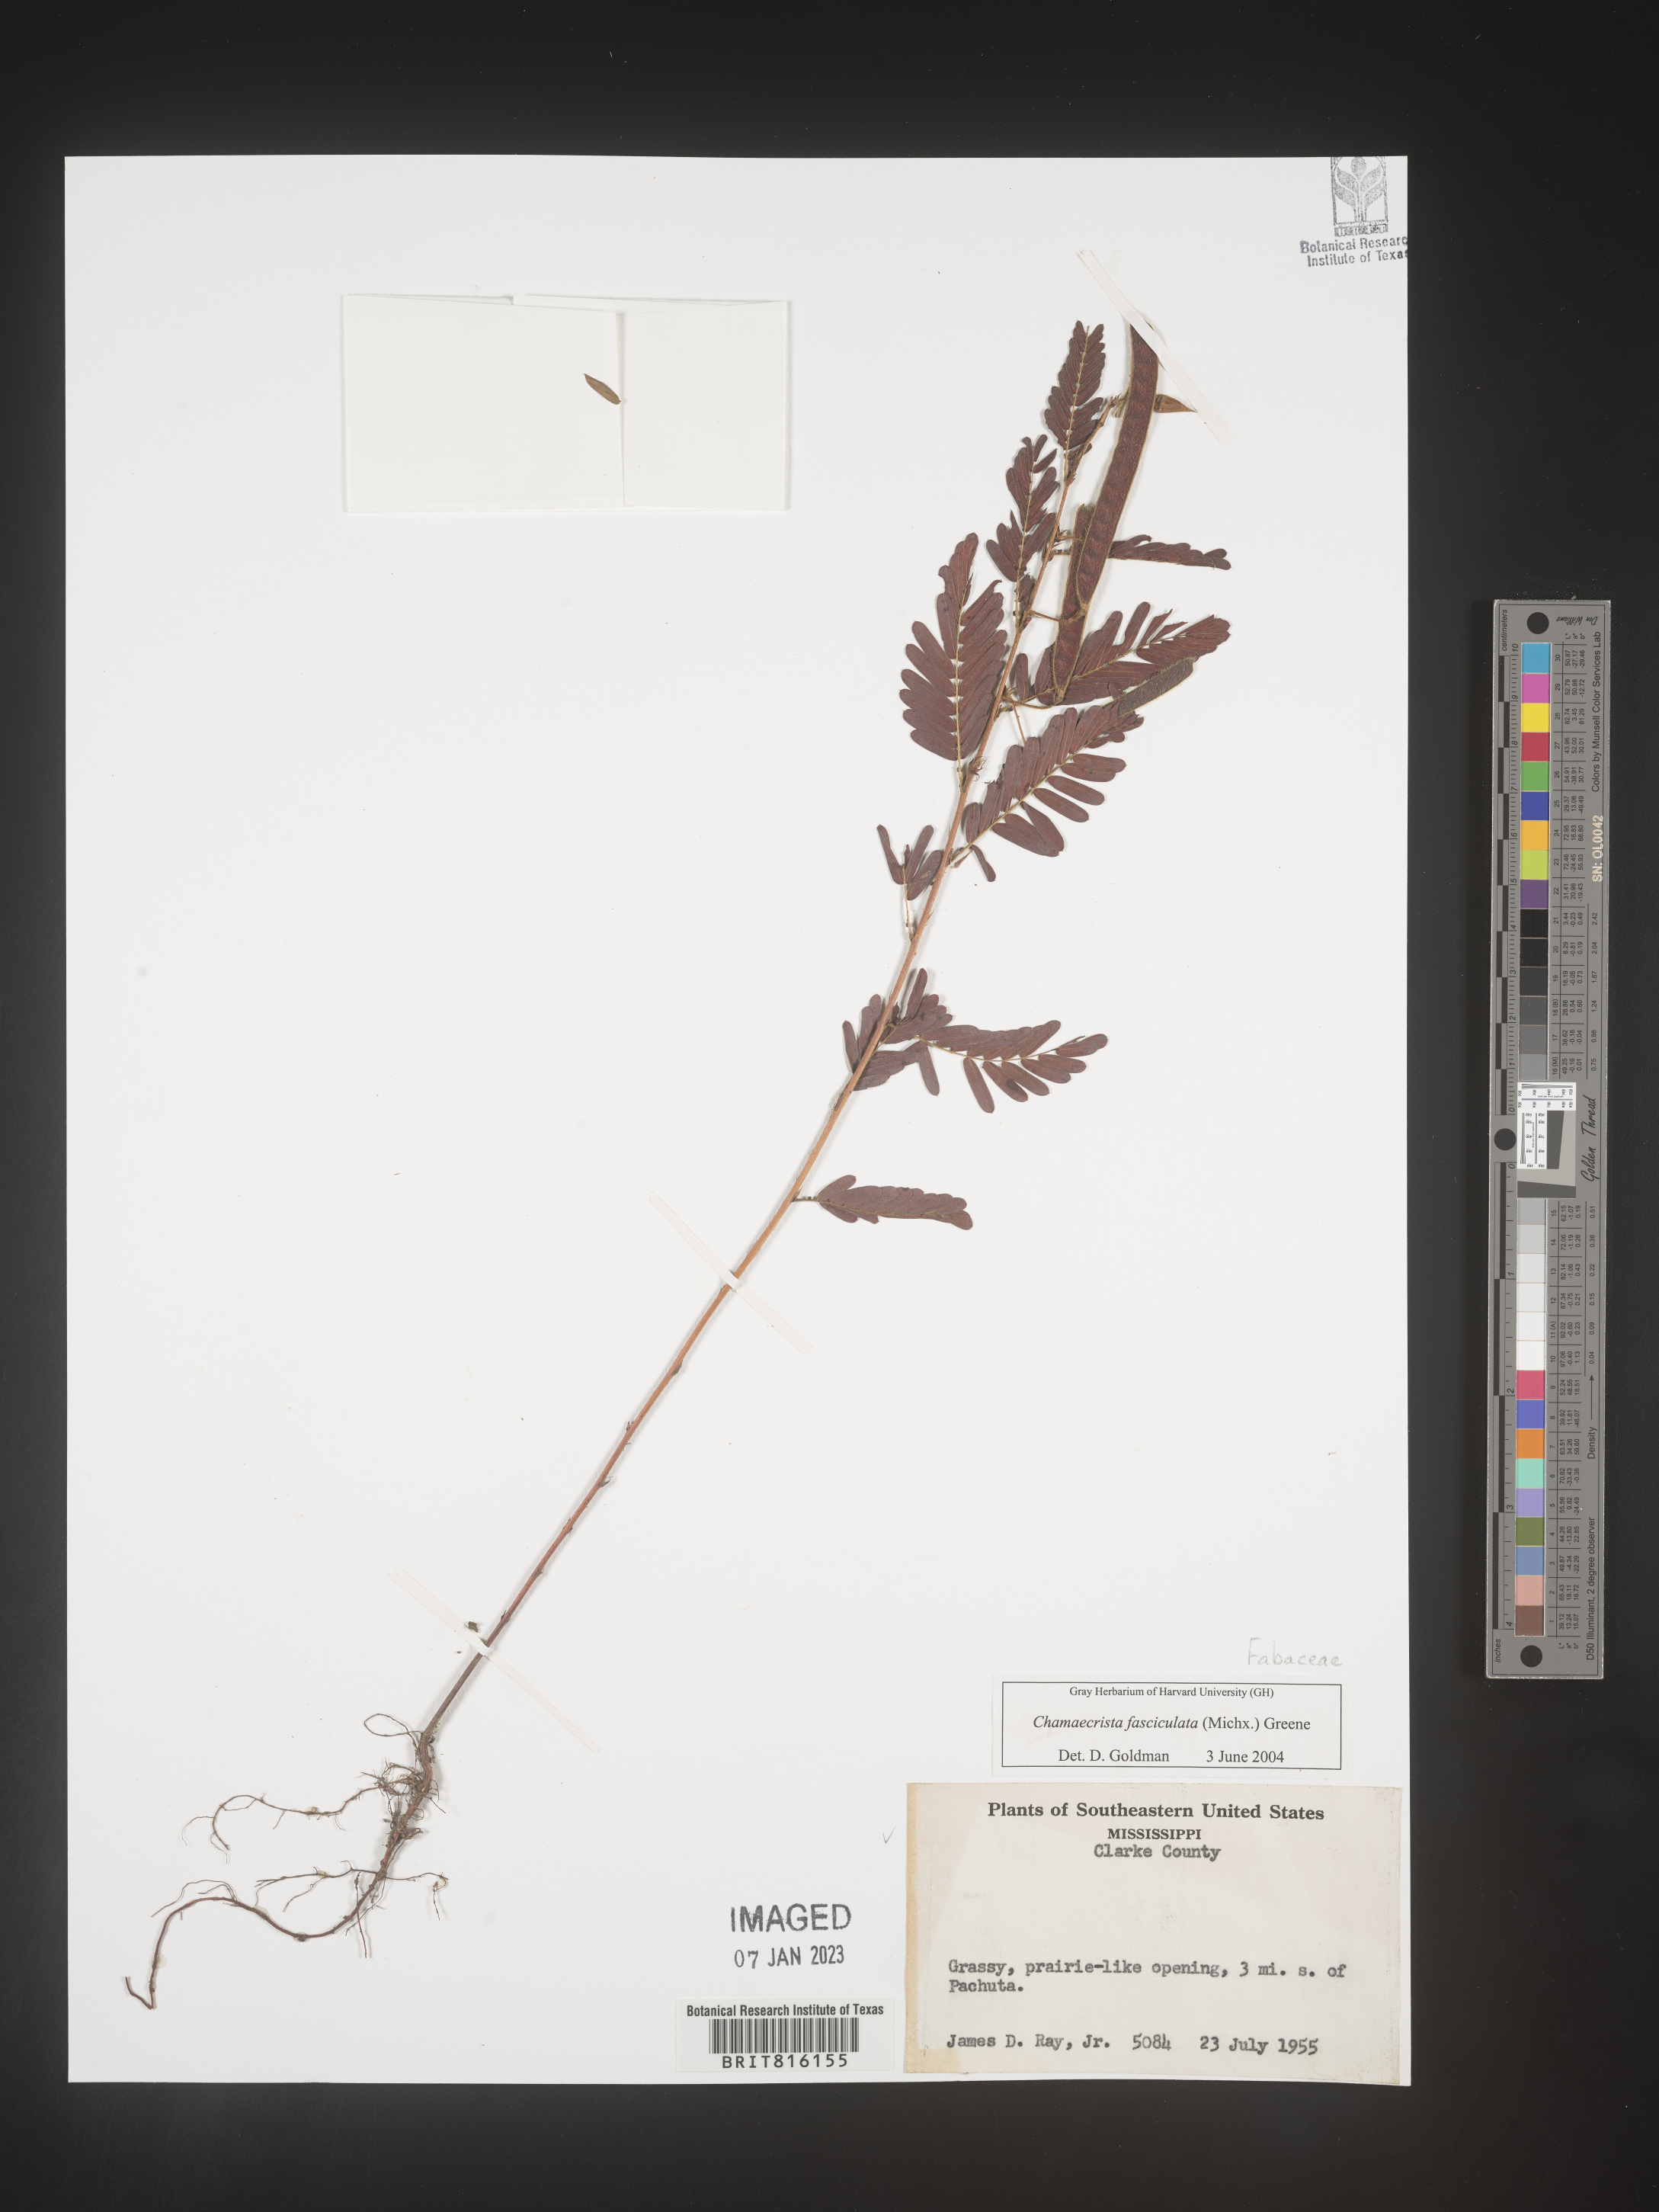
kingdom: Plantae
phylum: Tracheophyta
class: Magnoliopsida
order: Fabales
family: Fabaceae
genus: Chamaecrista
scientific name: Chamaecrista fasciculata
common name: Golden cassia
